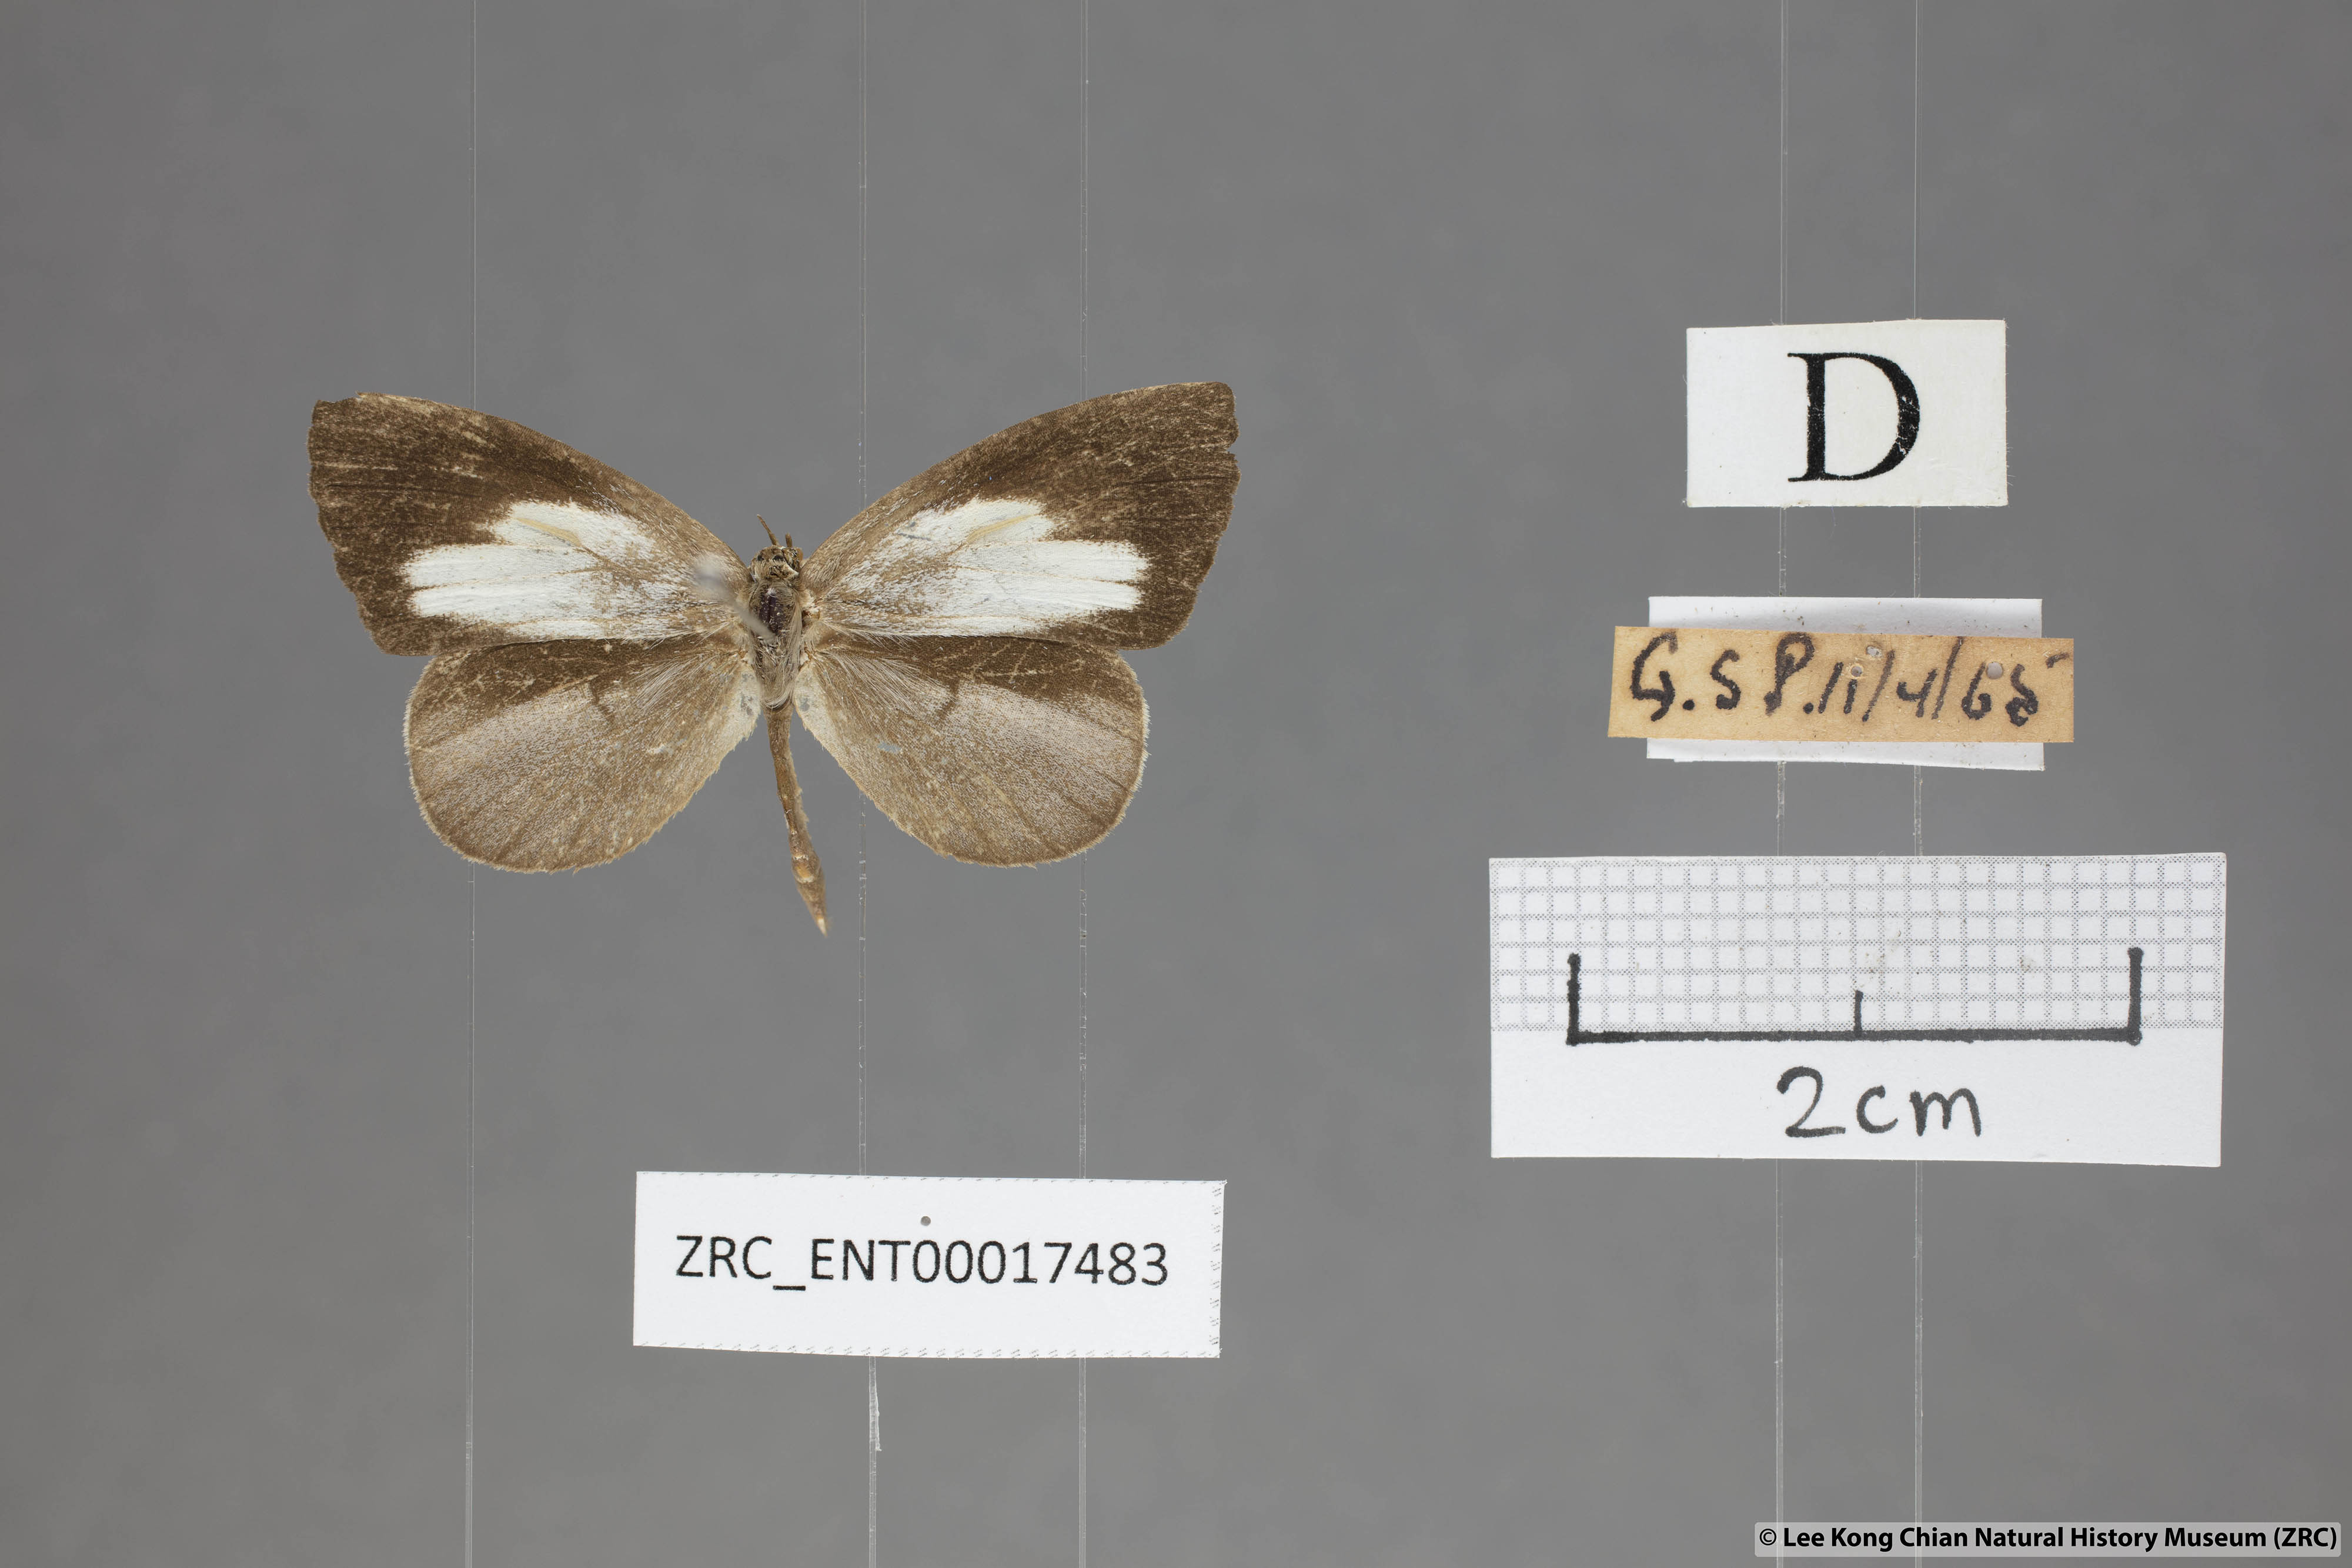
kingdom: Animalia
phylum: Arthropoda
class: Insecta
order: Lepidoptera
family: Lycaenidae
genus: Miletus
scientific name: Miletus symethus
